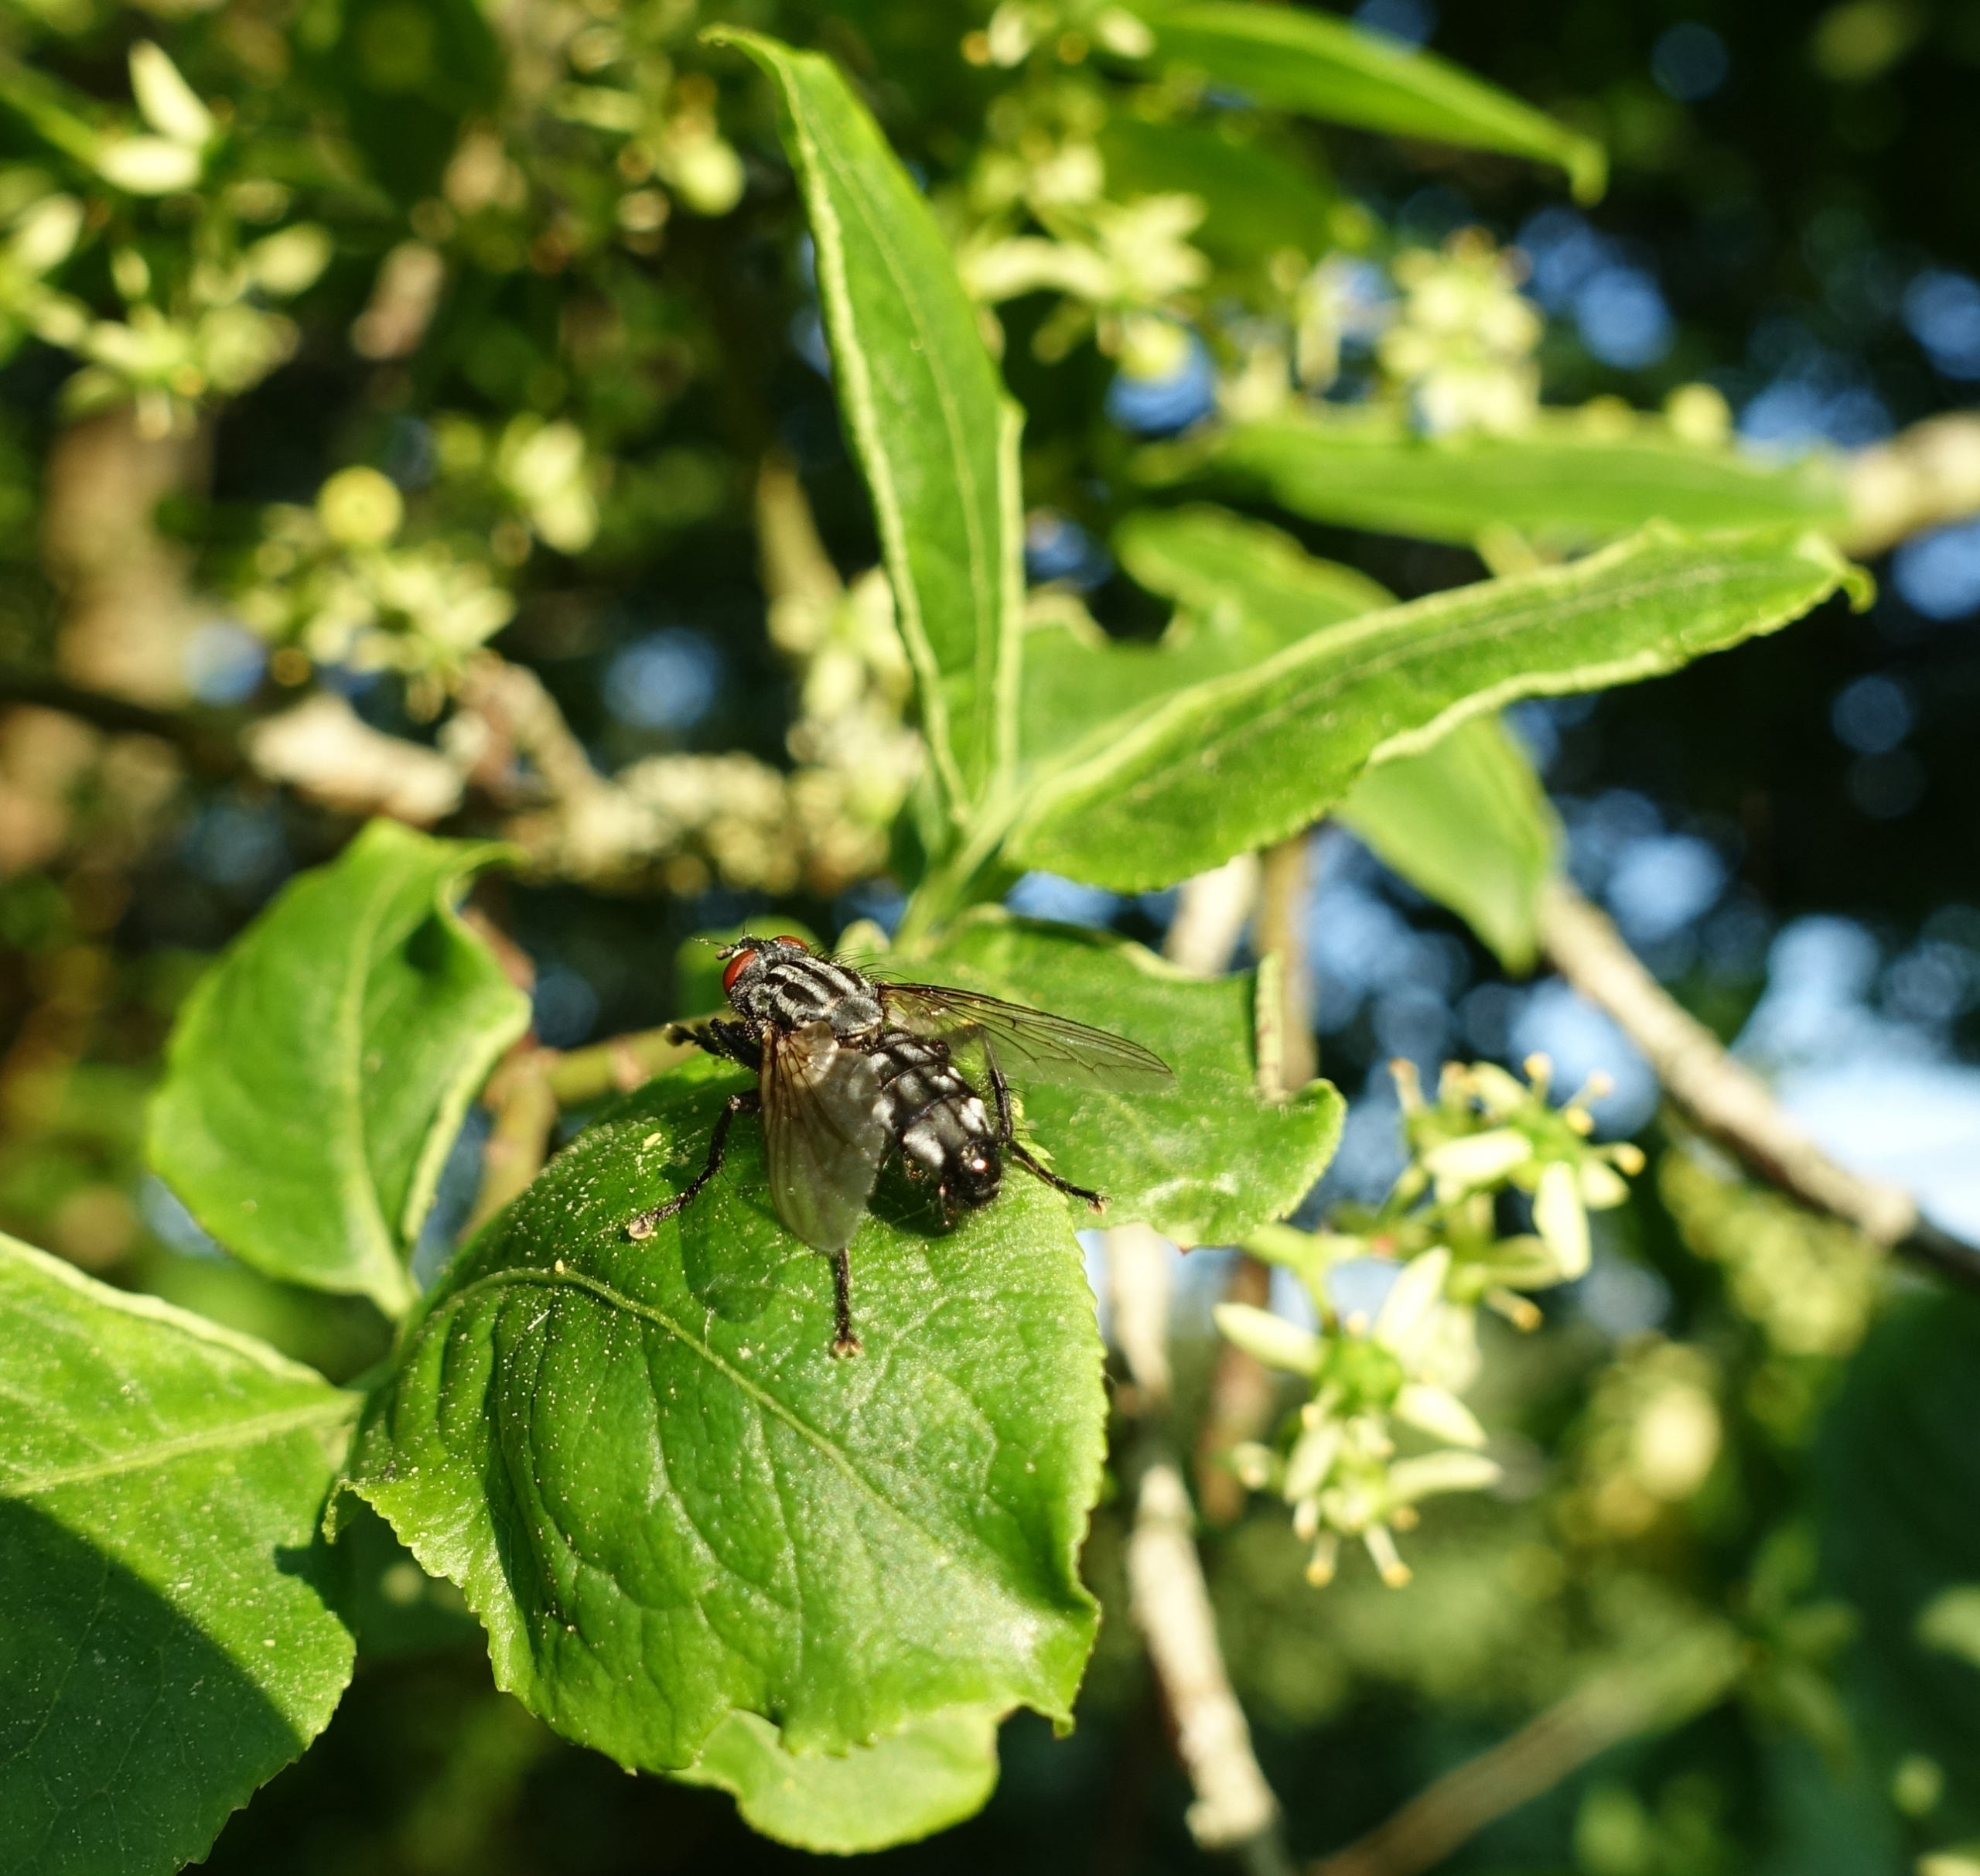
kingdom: Animalia
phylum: Arthropoda
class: Insecta
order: Diptera
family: Sarcophagidae
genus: Sarcophaga
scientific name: Sarcophaga carnaria
